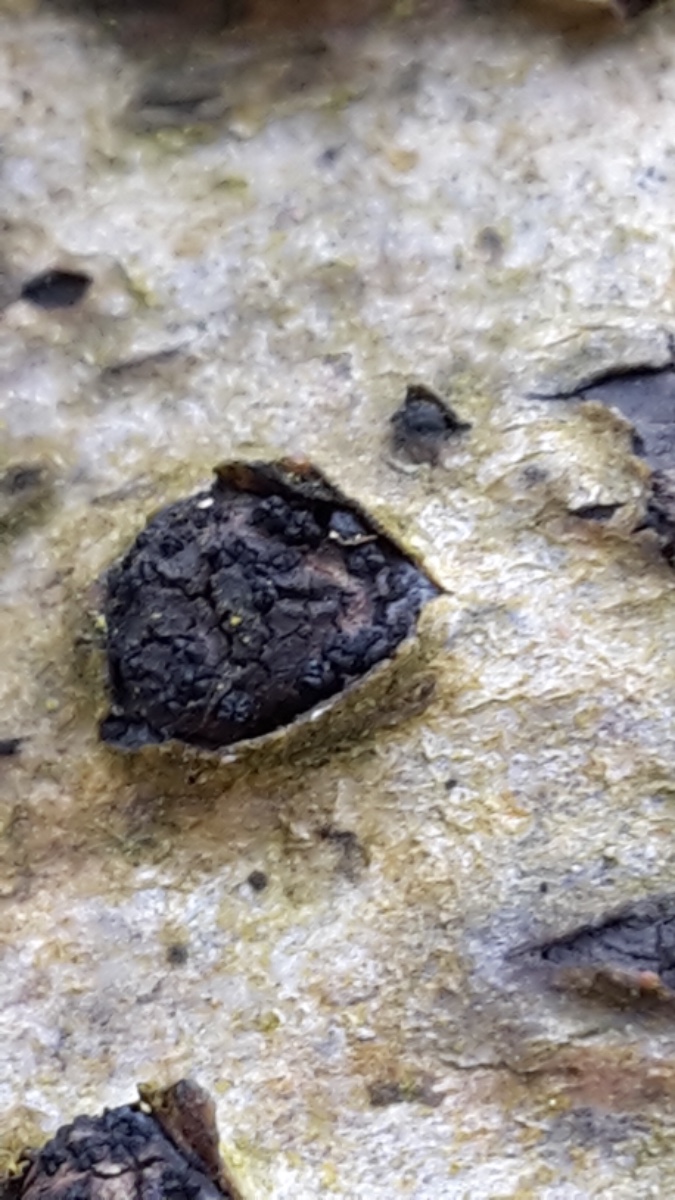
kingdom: Fungi
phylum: Ascomycota
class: Sordariomycetes
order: Xylariales
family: Diatrypaceae
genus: Diatrypella
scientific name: Diatrypella quercina
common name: ege-kulskorpe
